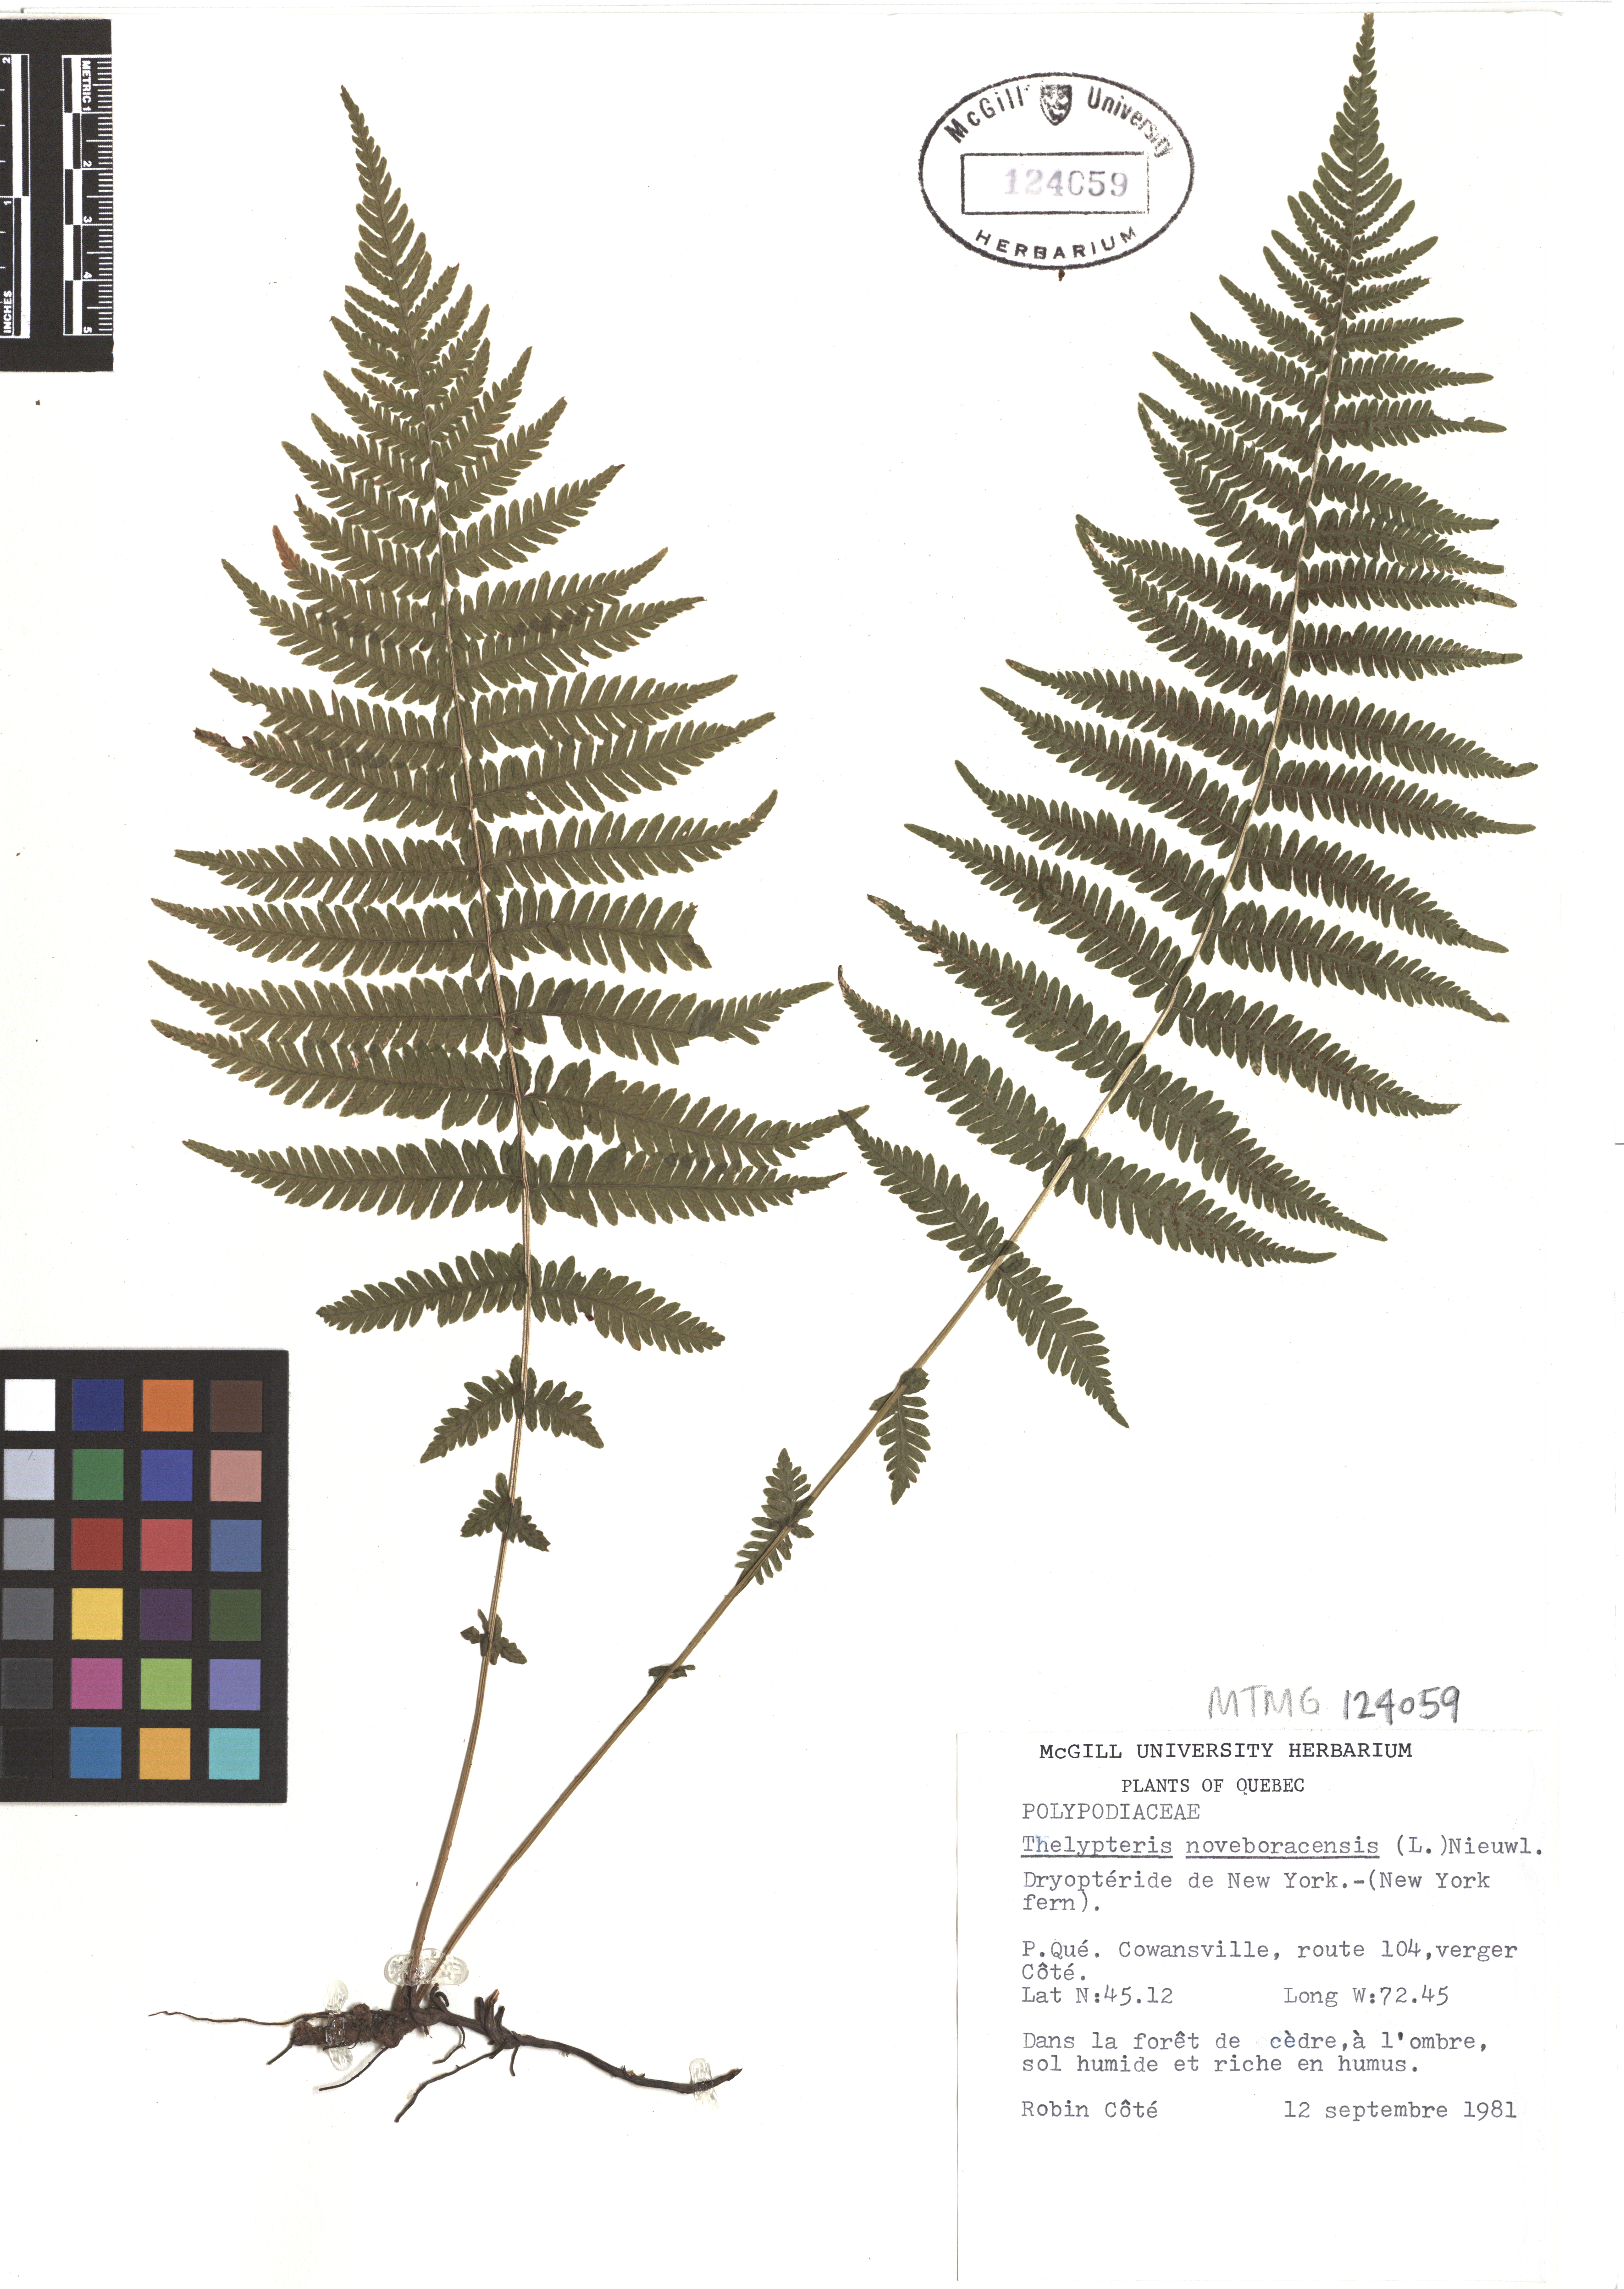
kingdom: Plantae
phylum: Tracheophyta
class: Polypodiopsida
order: Polypodiales
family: Thelypteridaceae
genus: Amauropelta
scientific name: Amauropelta noveboracensis
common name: New york fern
